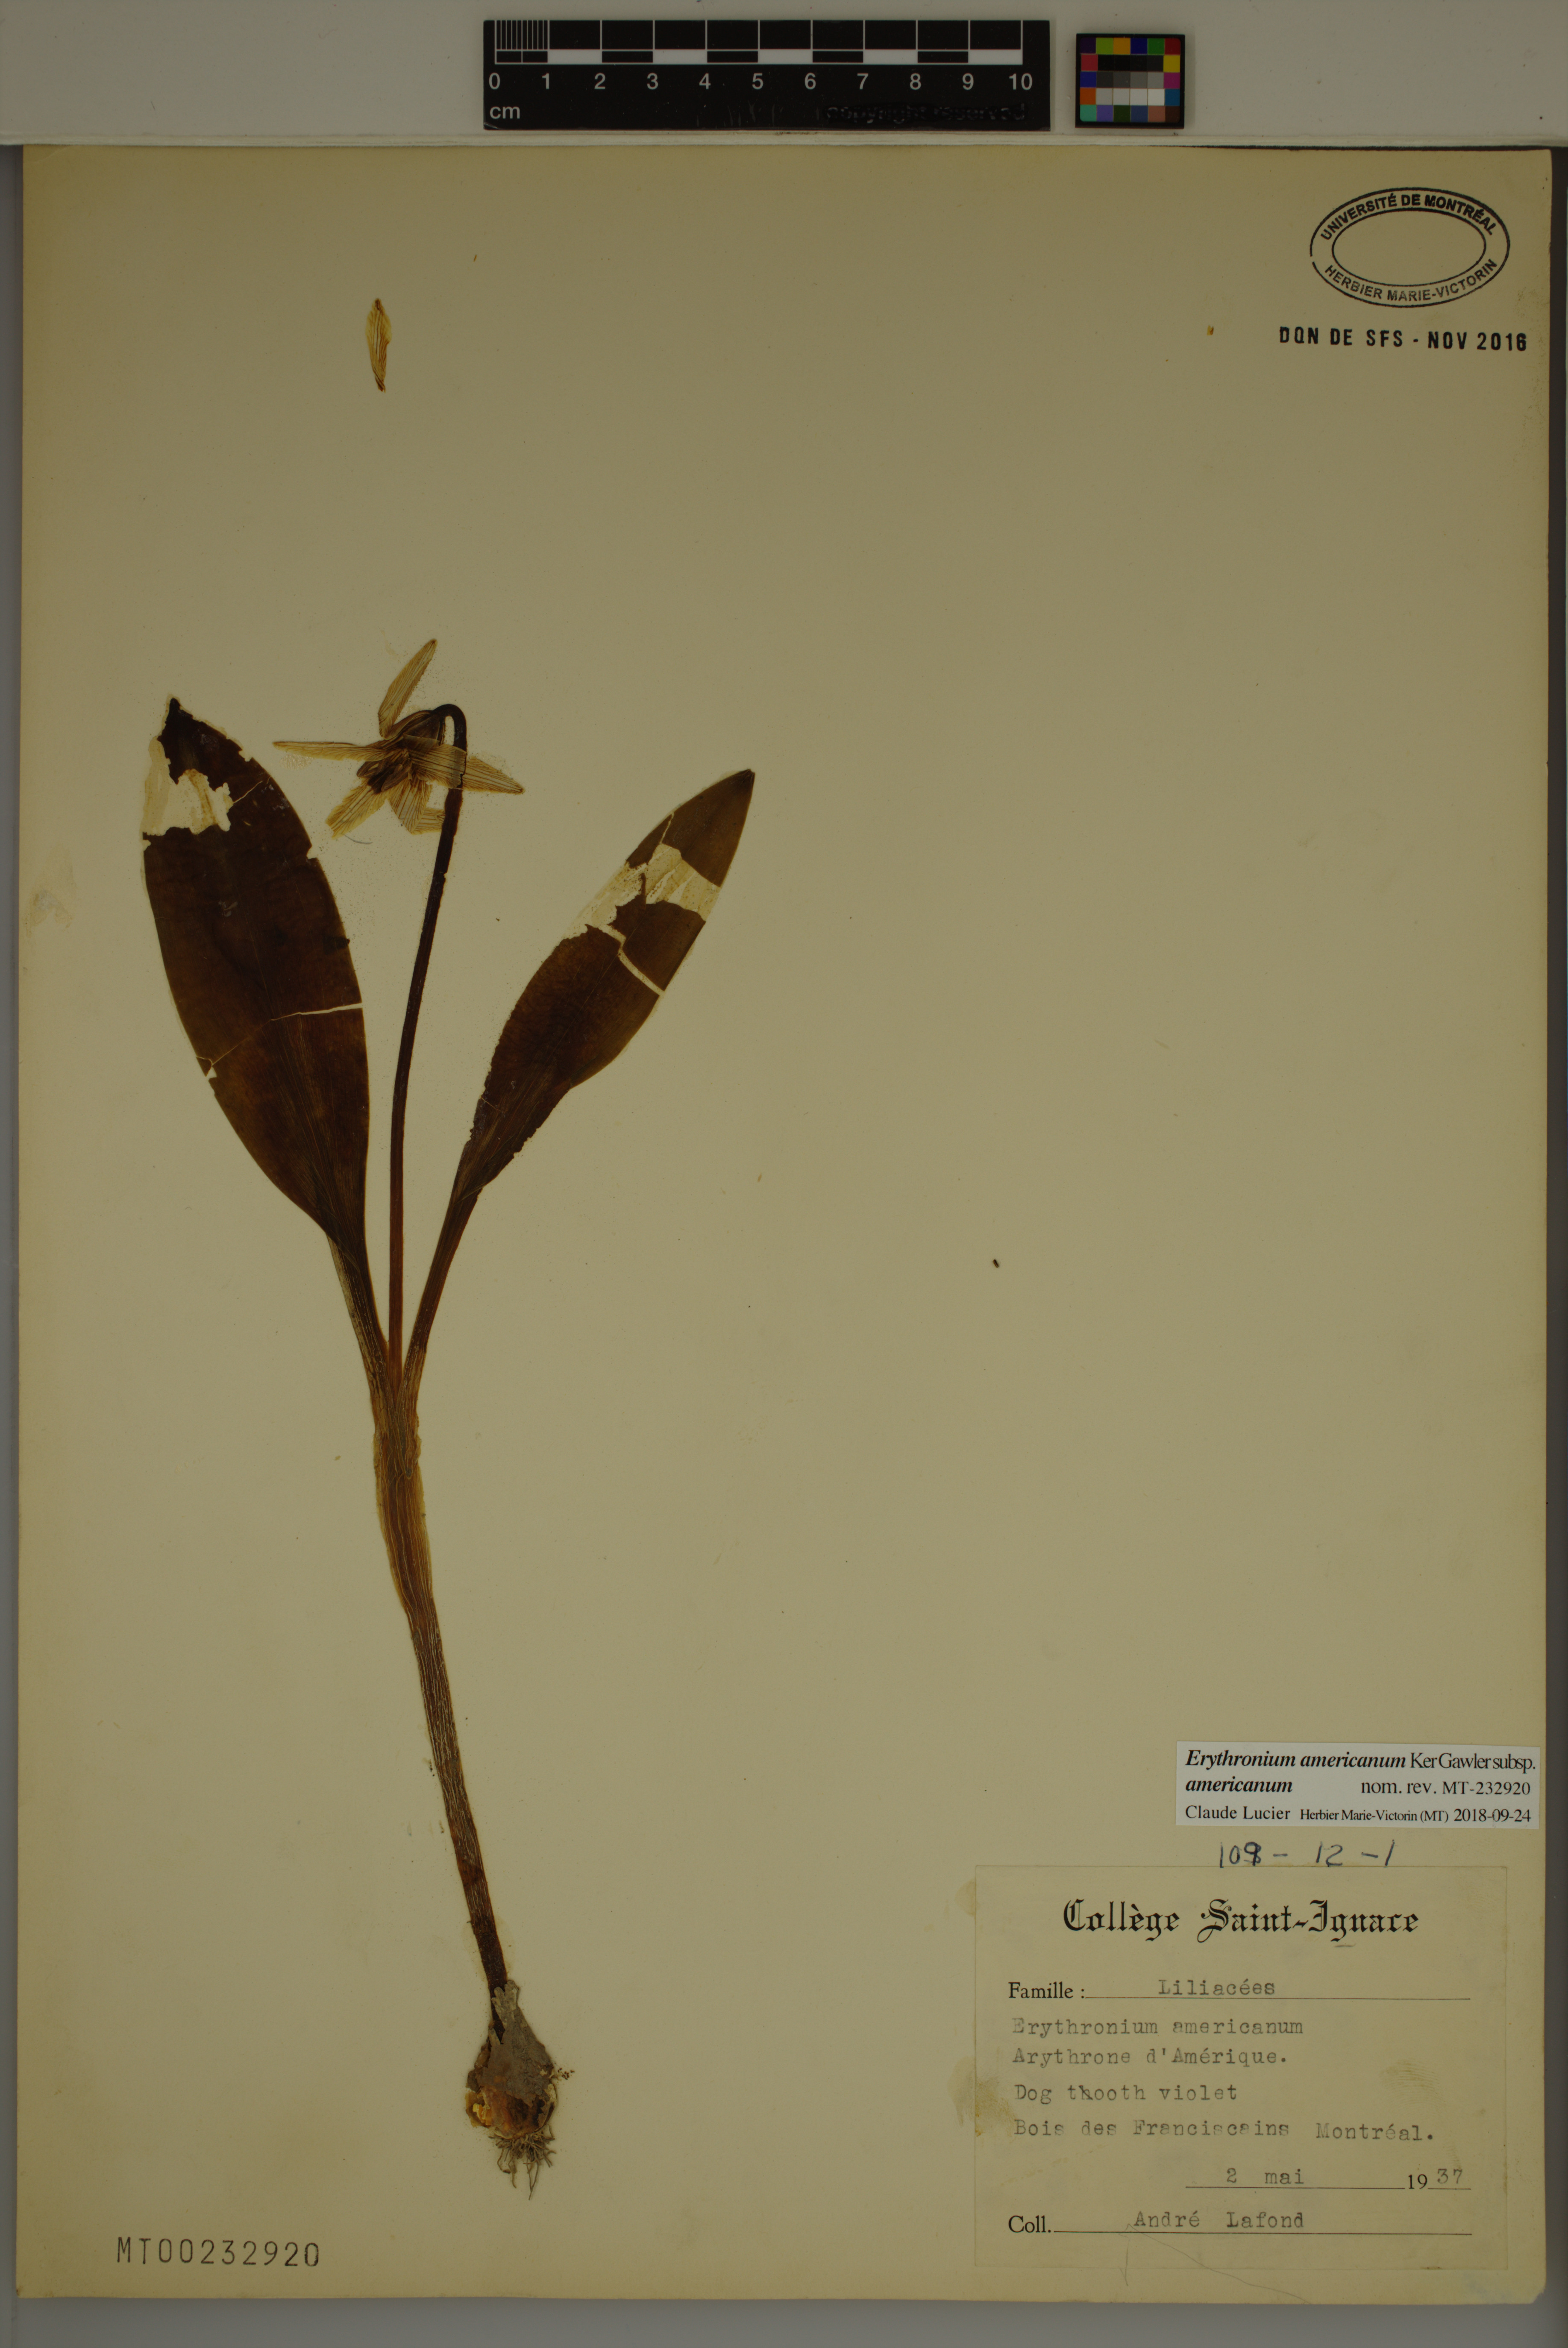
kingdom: Plantae
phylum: Tracheophyta
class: Liliopsida
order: Liliales
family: Liliaceae
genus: Erythronium
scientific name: Erythronium americanum
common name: Yellow adder's-tongue
